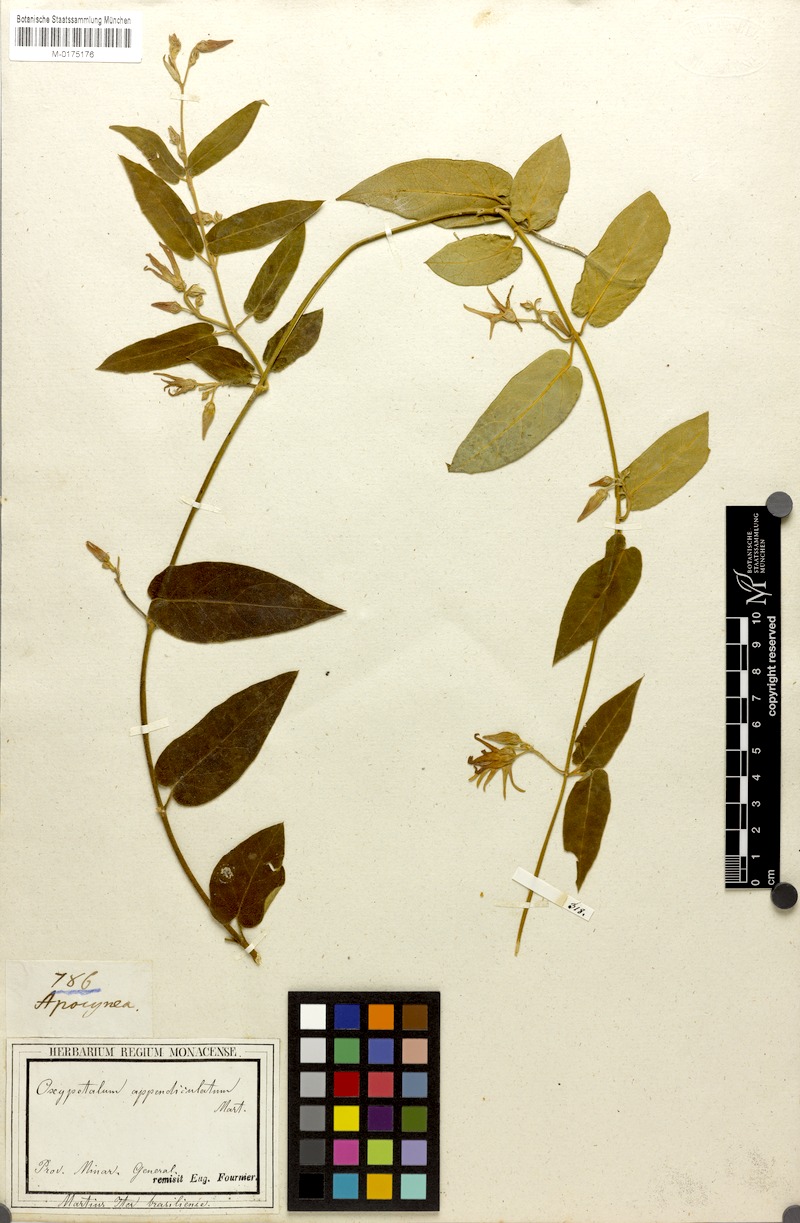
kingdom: Plantae
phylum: Tracheophyta
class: Magnoliopsida
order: Gentianales
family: Apocynaceae
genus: Oxypetalum
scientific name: Oxypetalum appendiculatum
